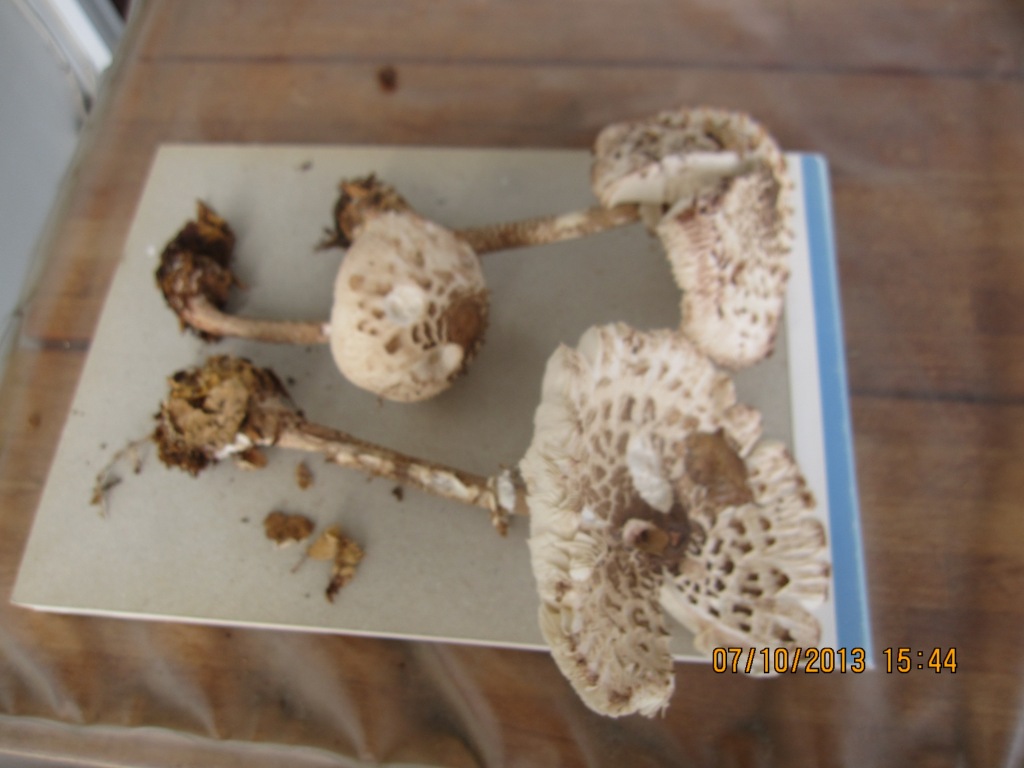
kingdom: Fungi
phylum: Basidiomycota
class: Agaricomycetes
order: Agaricales
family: Agaricaceae
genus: Macrolepiota
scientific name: Macrolepiota fuliginosa
